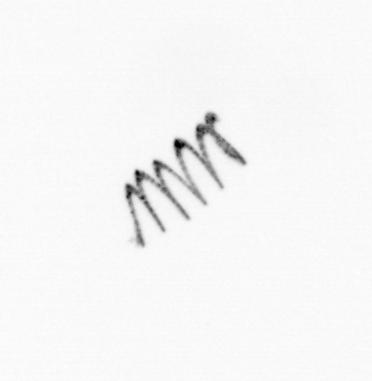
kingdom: Chromista
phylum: Ochrophyta
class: Bacillariophyceae
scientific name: Bacillariophyceae
